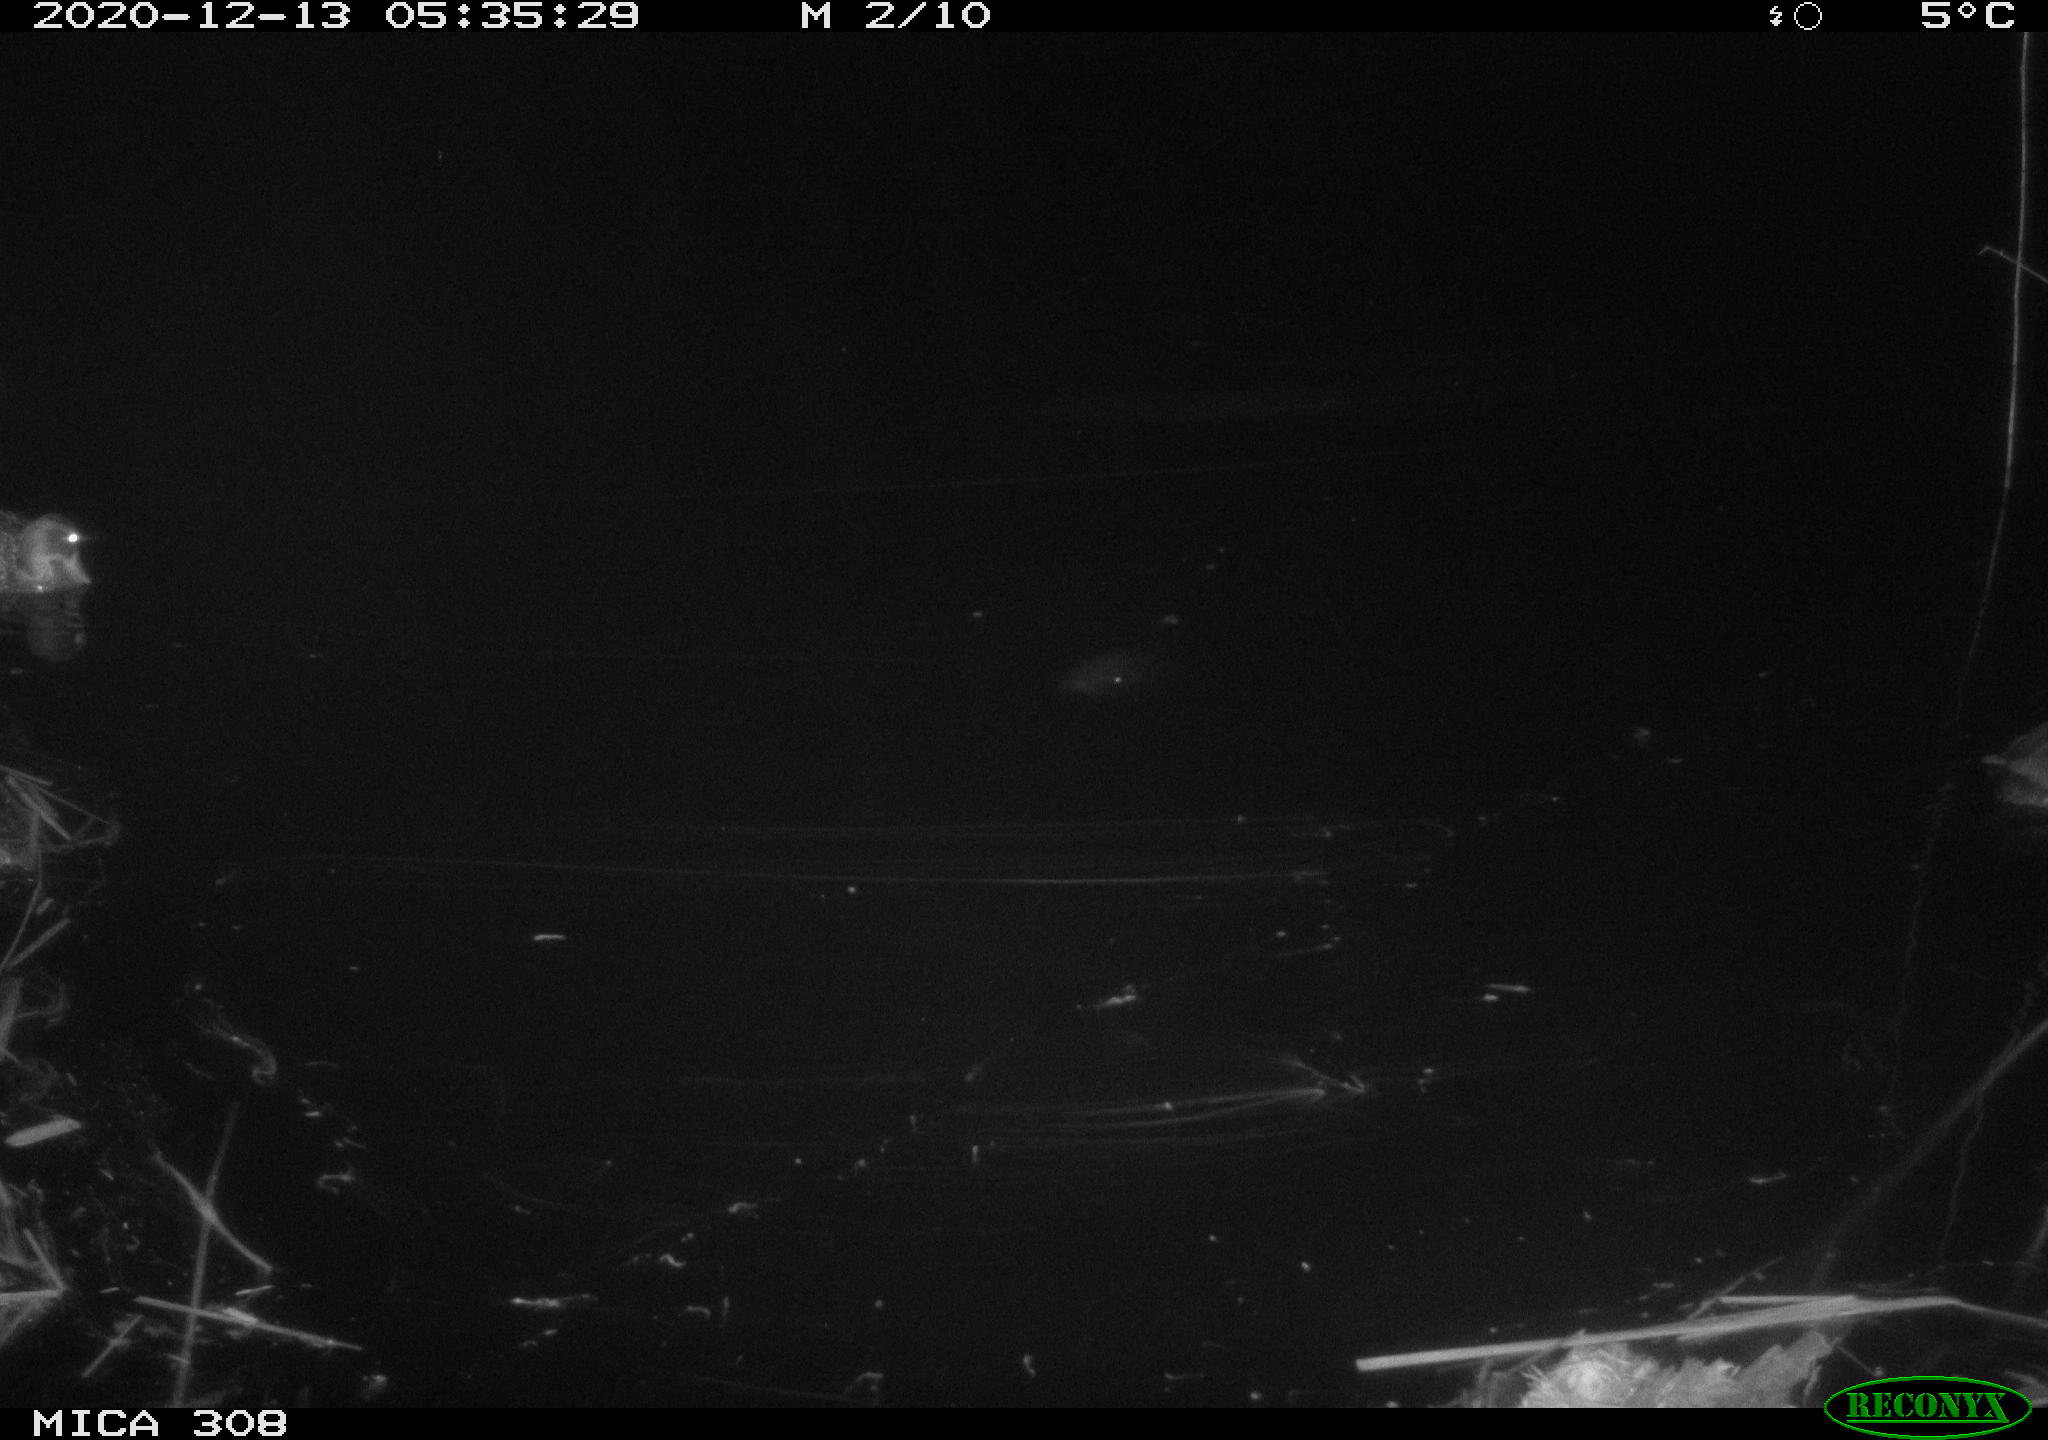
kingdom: Animalia
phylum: Chordata
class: Aves
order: Anseriformes
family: Anatidae
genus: Anas
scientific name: Anas platyrhynchos
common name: Mallard
